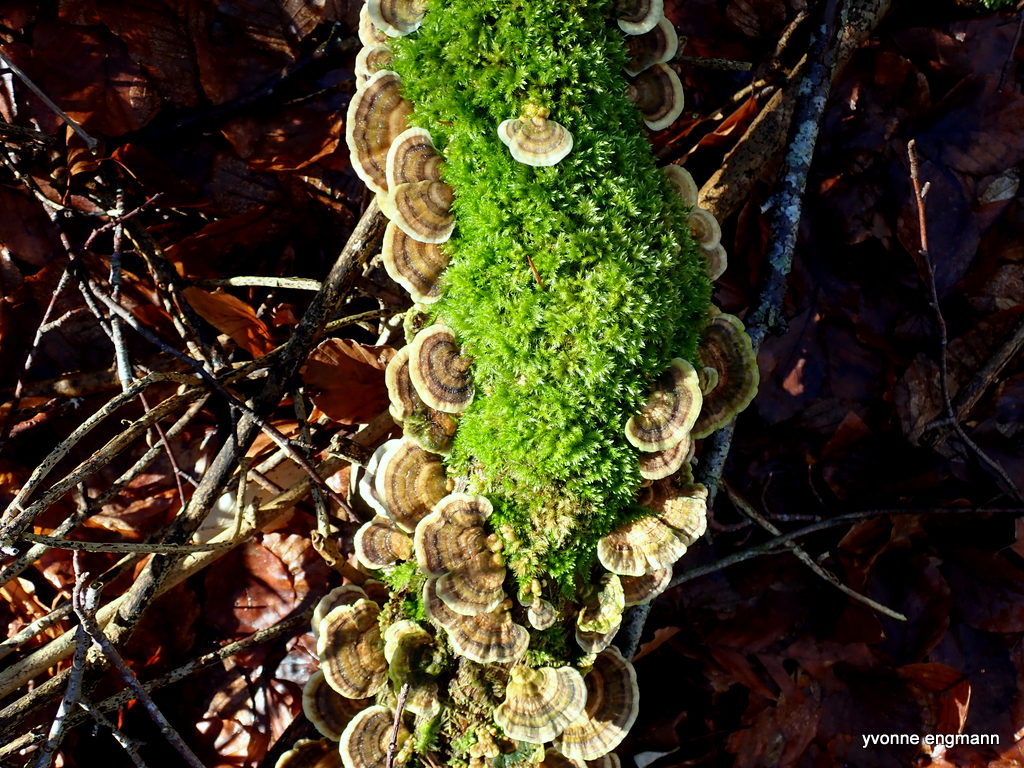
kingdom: Fungi
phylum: Basidiomycota
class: Agaricomycetes
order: Polyporales
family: Polyporaceae
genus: Trametes
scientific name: Trametes versicolor
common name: broget læderporesvamp
